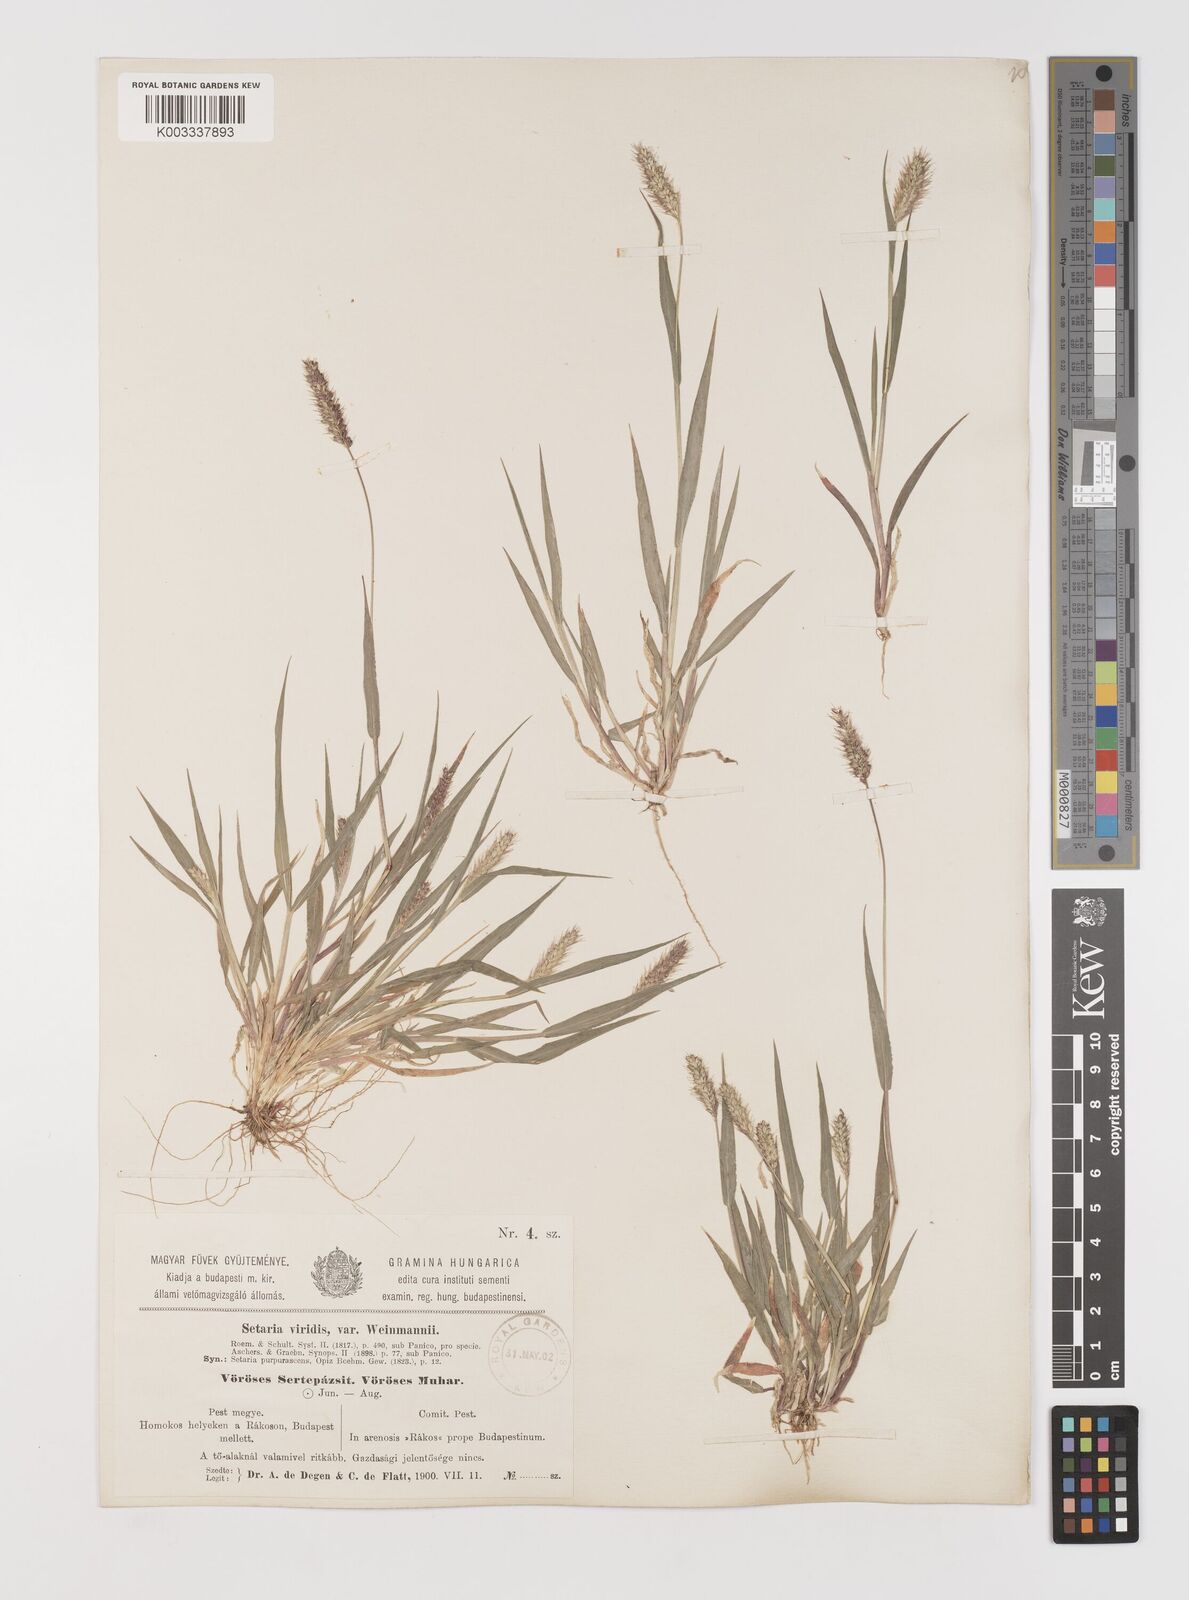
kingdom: Plantae
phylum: Tracheophyta
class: Liliopsida
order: Poales
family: Poaceae
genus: Setaria
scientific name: Setaria viridis
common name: Green bristlegrass
